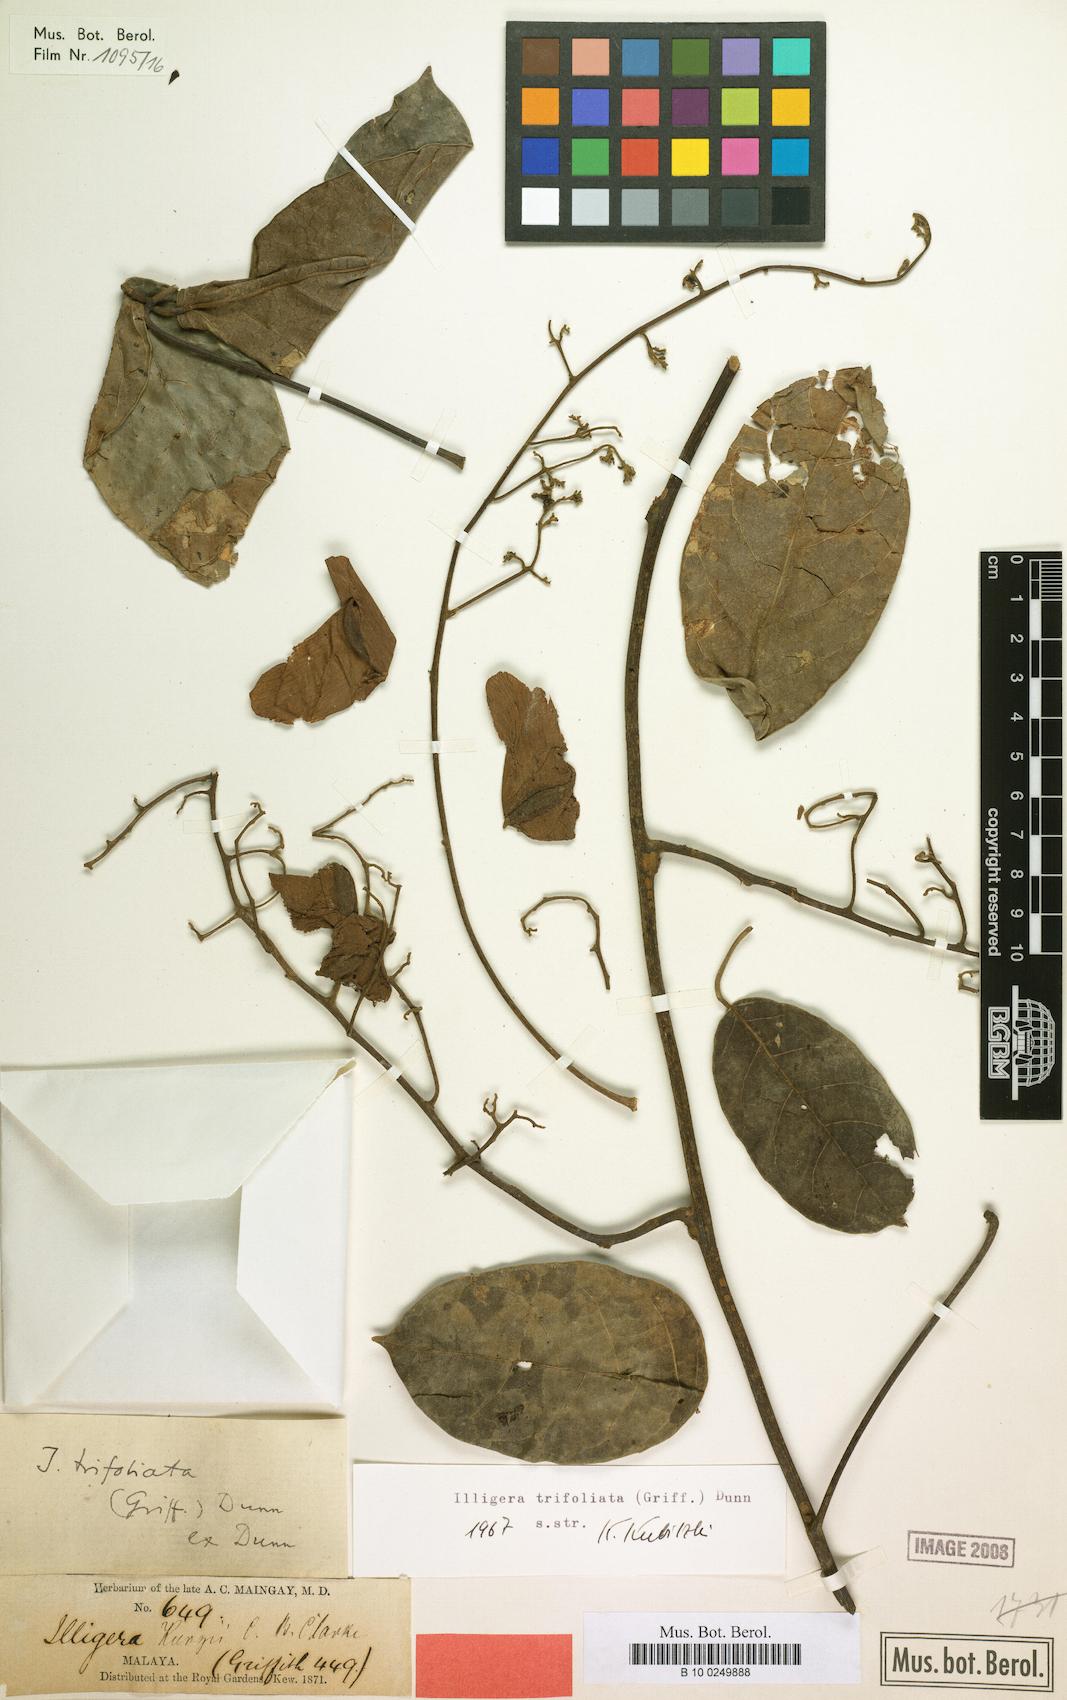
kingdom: Plantae
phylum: Tracheophyta
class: Magnoliopsida
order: Laurales
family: Hernandiaceae
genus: Illigera
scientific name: Illigera trifoliata
